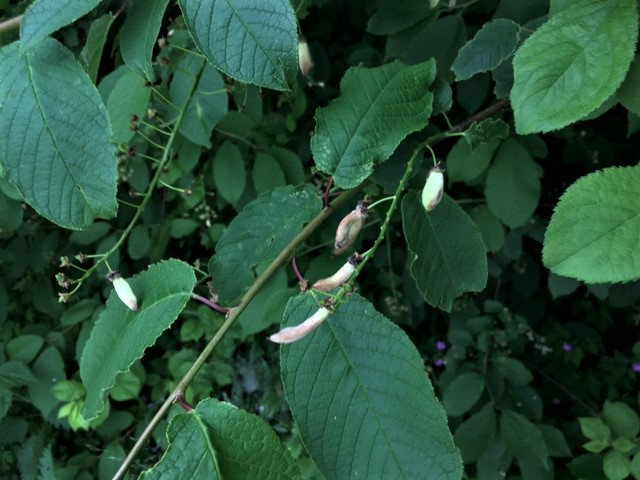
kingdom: Fungi
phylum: Ascomycota
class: Taphrinomycetes
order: Taphrinales
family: Taphrinaceae
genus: Taphrina
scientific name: Taphrina padi
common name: Bird cherry pocket
